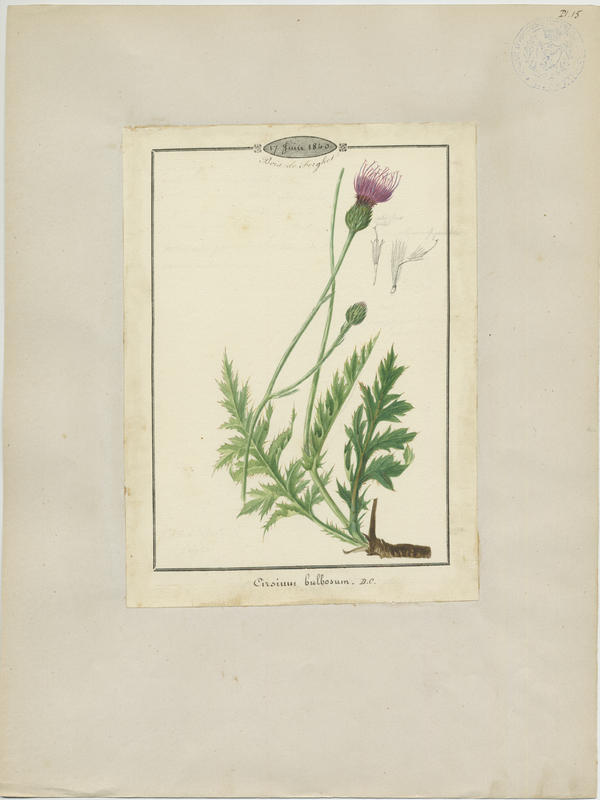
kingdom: Plantae
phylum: Tracheophyta
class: Magnoliopsida
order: Asterales
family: Asteraceae
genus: Cirsium
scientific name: Cirsium filipendulum
